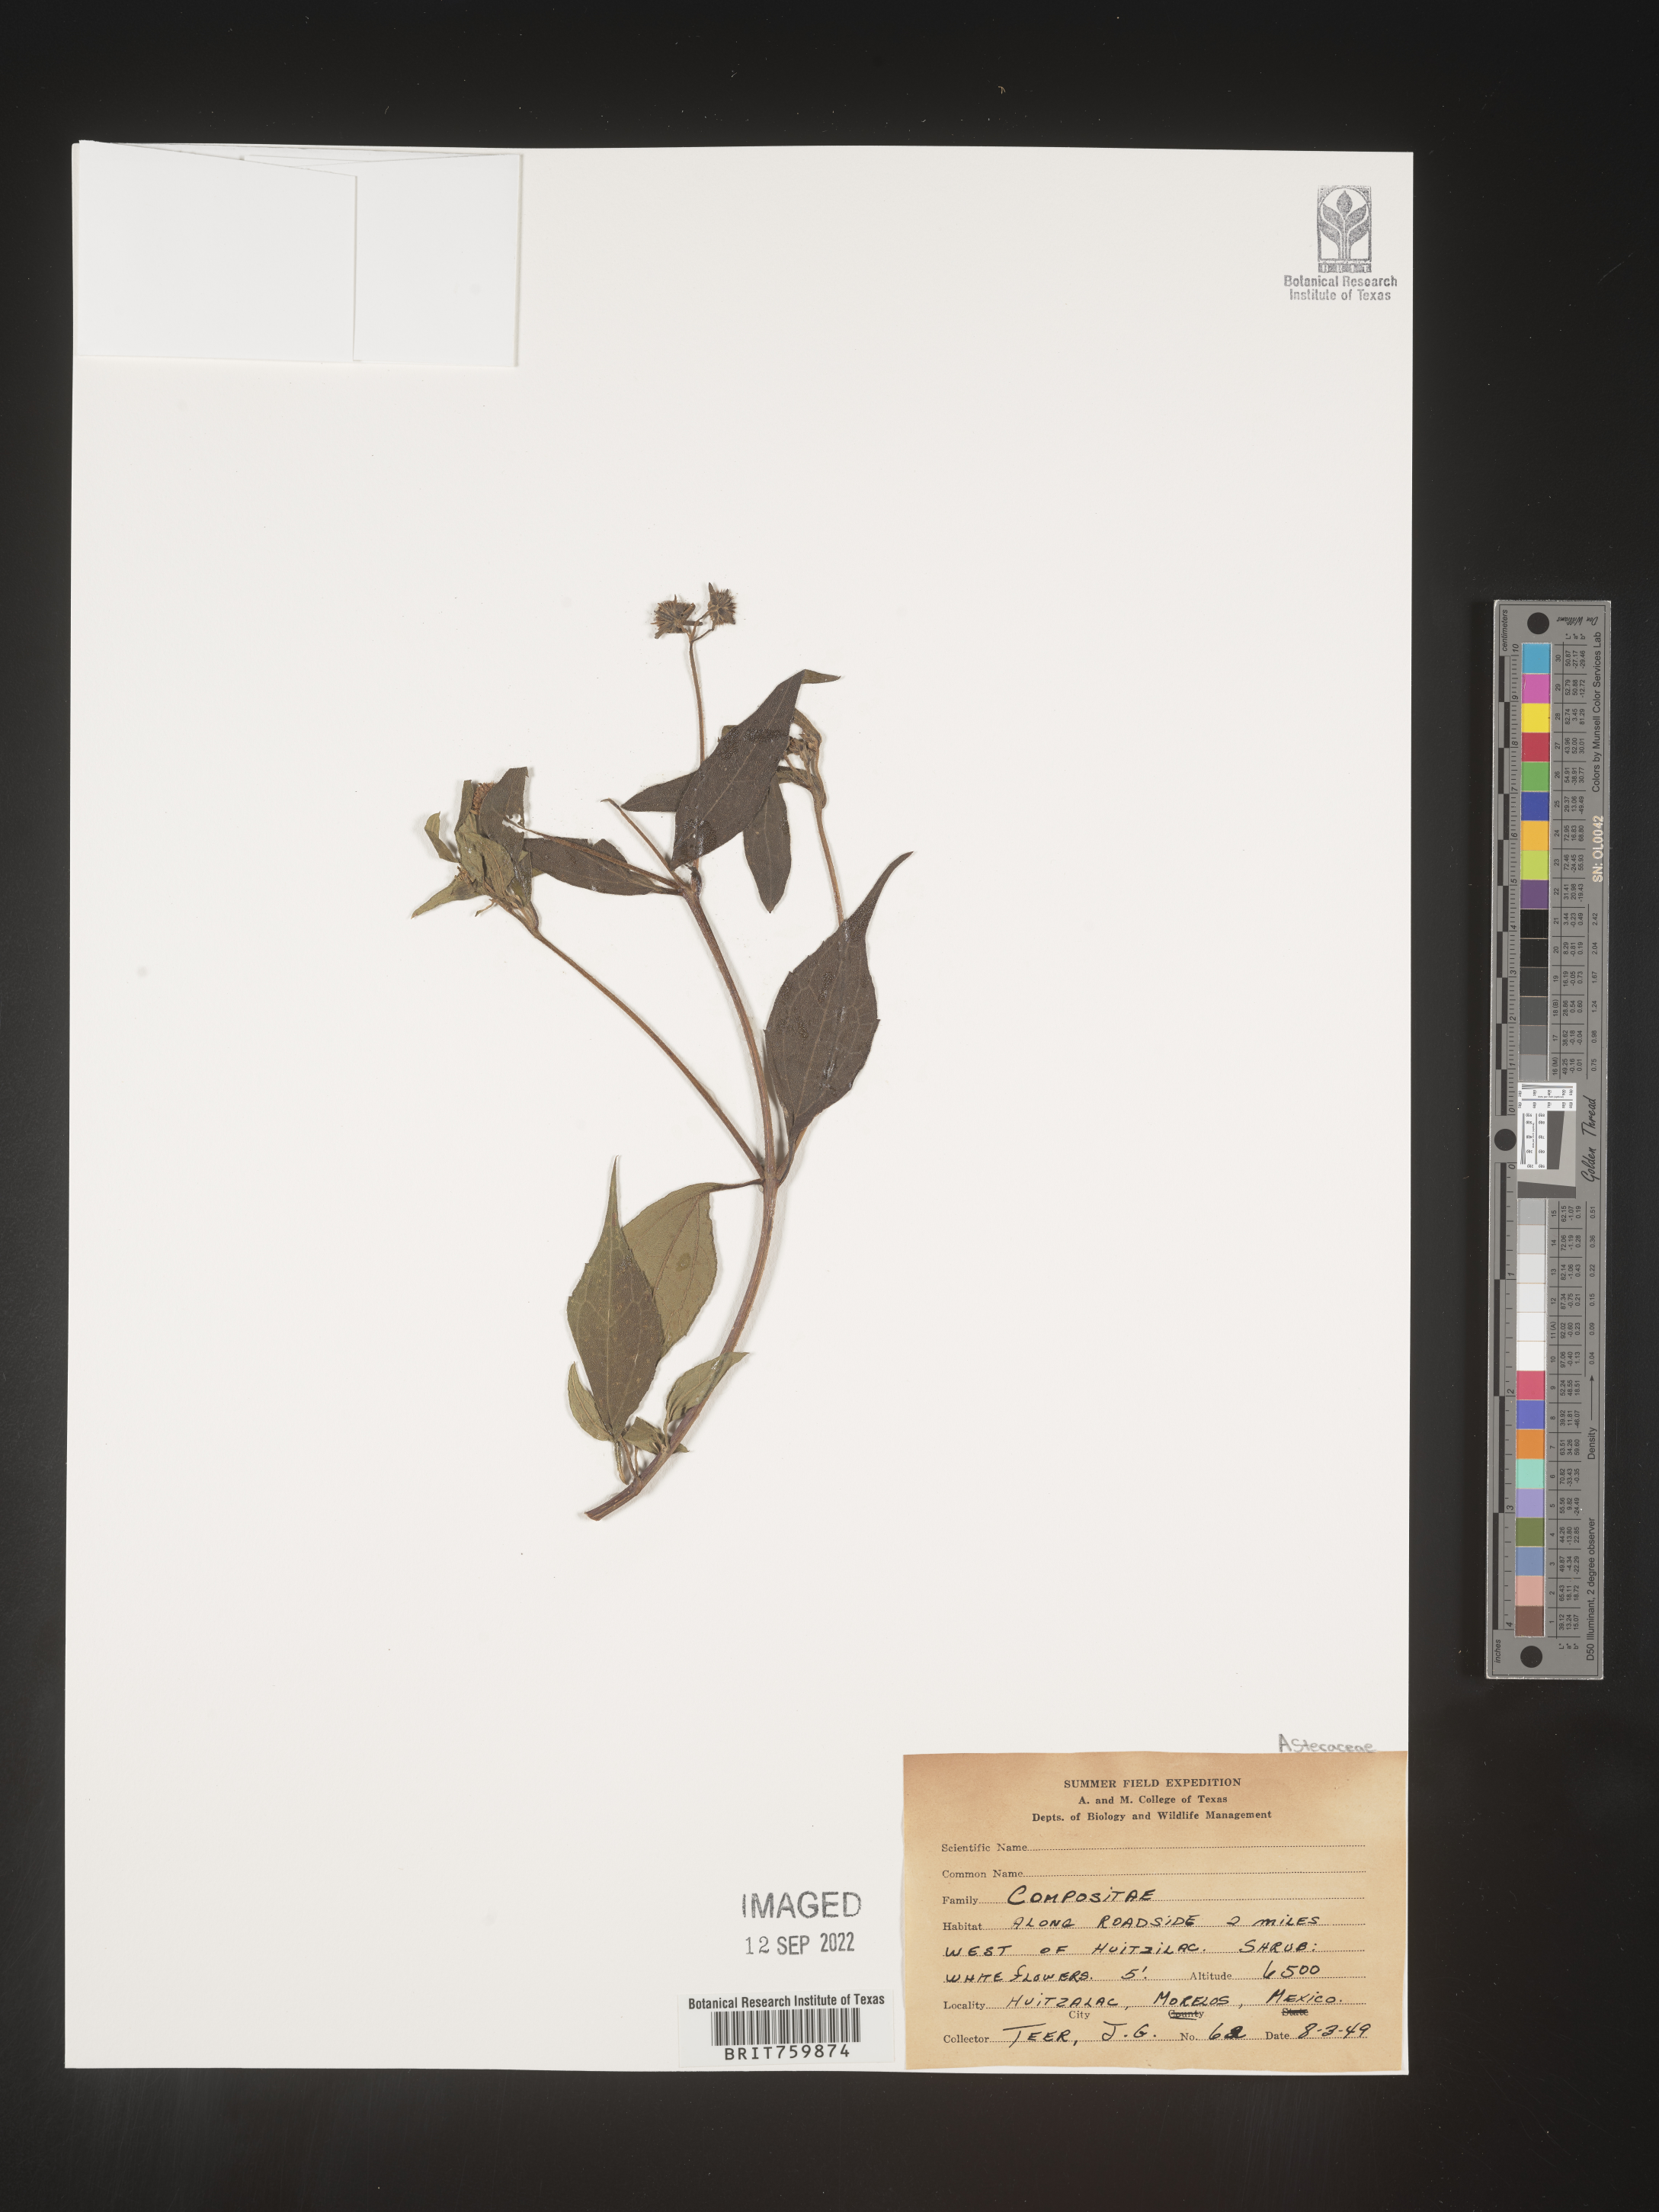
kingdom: Plantae
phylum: Tracheophyta
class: Magnoliopsida
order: Asterales
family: Asteraceae
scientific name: Asteraceae
